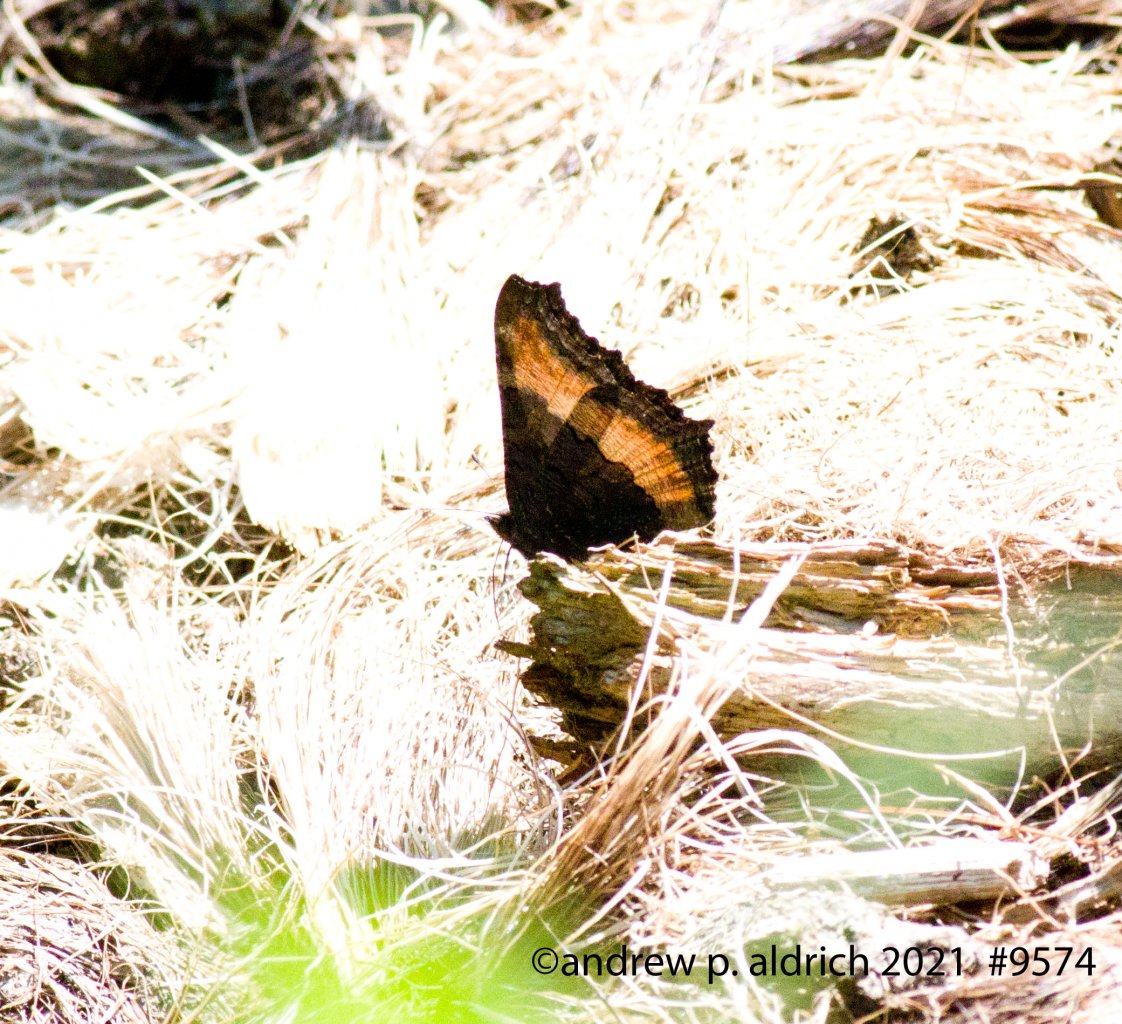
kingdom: Animalia
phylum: Arthropoda
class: Insecta
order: Lepidoptera
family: Nymphalidae
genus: Aglais
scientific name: Aglais milberti
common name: Milbert's Tortoiseshell
